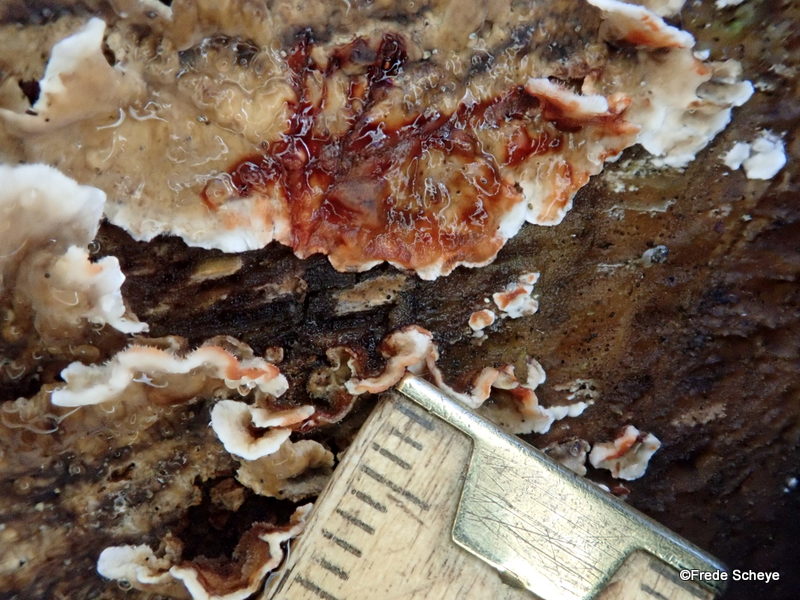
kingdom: Fungi
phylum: Basidiomycota
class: Agaricomycetes
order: Russulales
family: Stereaceae
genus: Stereum
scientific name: Stereum sanguinolentum
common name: blødende lædersvamp
